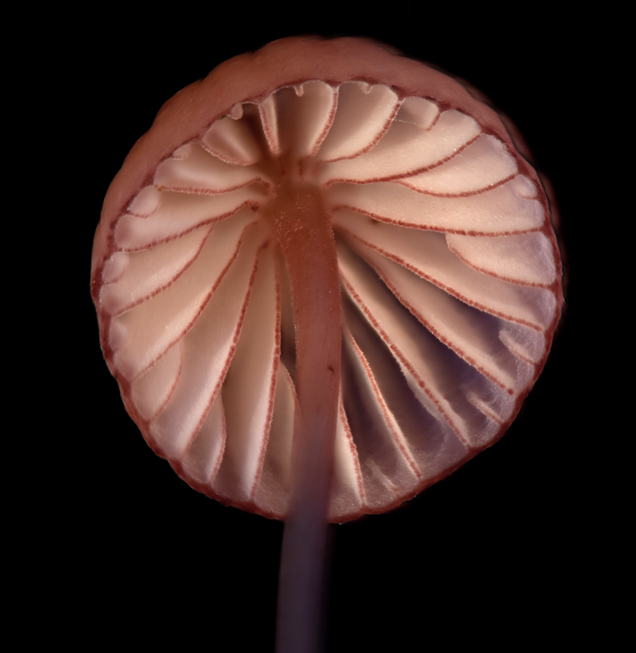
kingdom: Fungi
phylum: Basidiomycota
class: Agaricomycetes
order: Agaricales
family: Mycenaceae
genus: Mycena
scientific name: Mycena sanguinolenta
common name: rødmælket huesvamp
